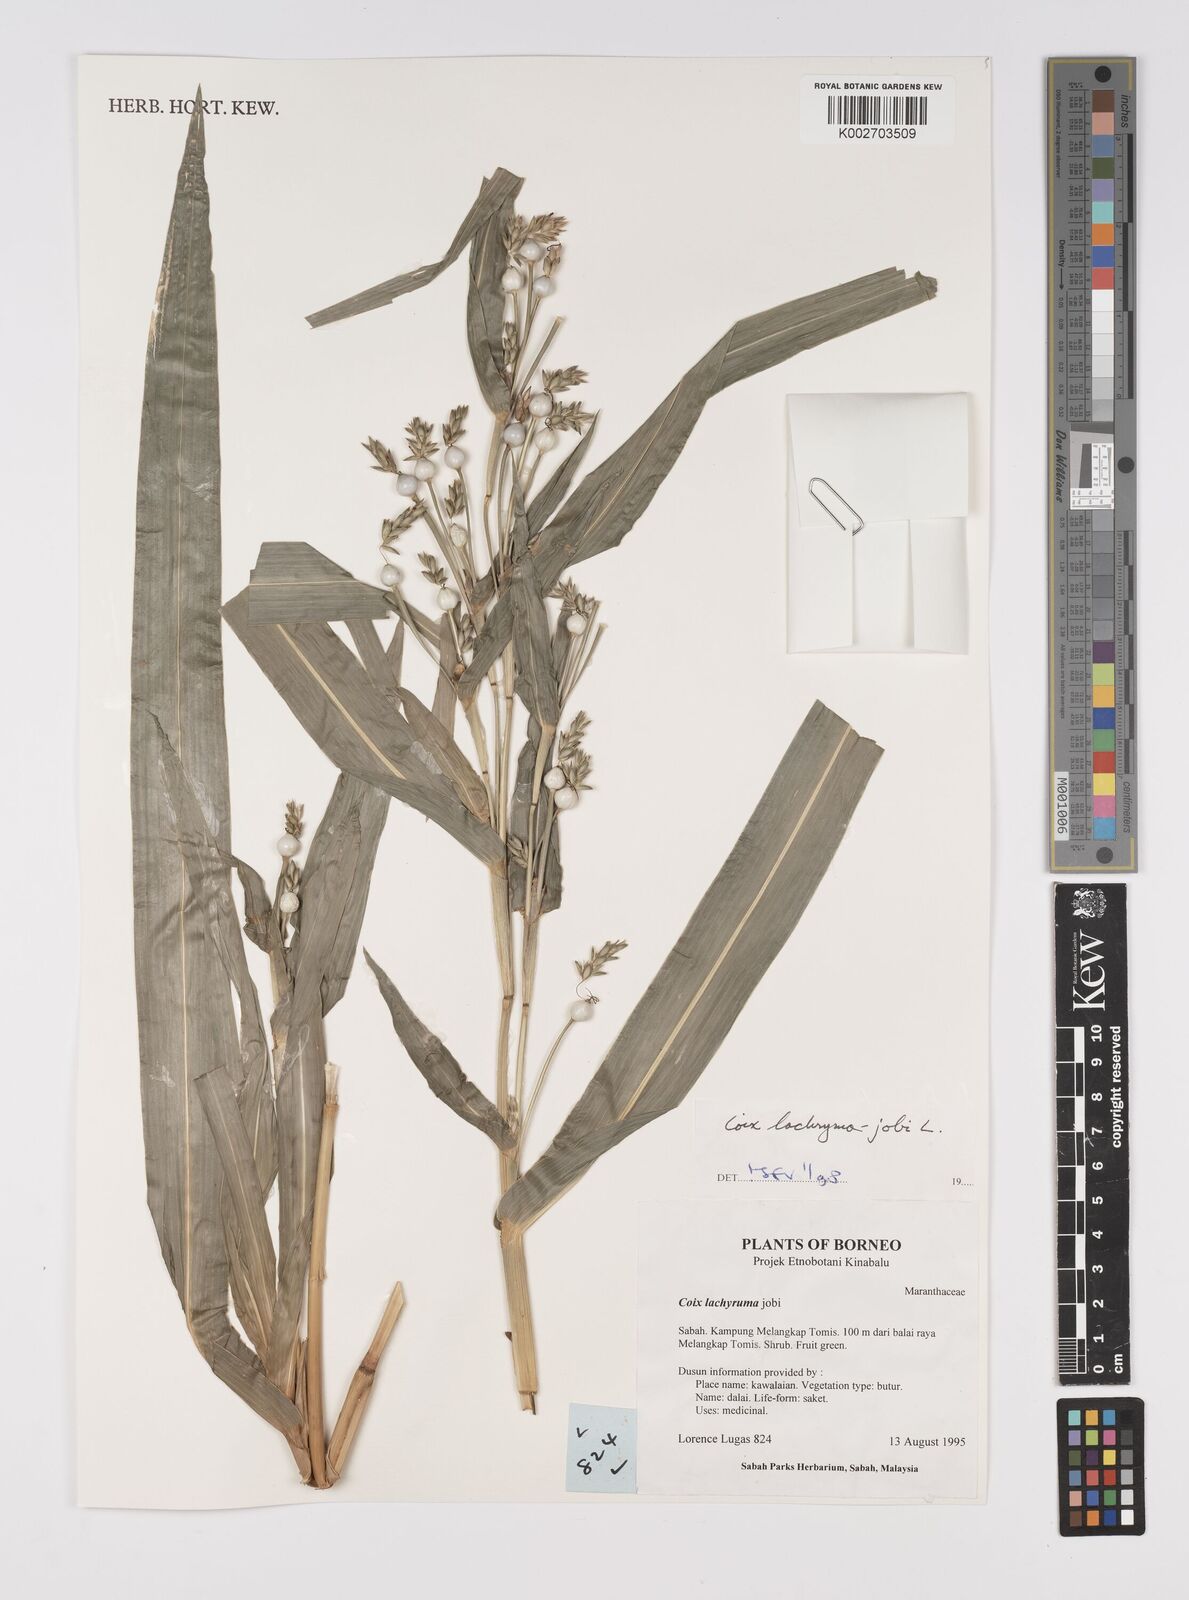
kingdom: Plantae
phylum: Tracheophyta
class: Liliopsida
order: Poales
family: Poaceae
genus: Coix
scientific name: Coix lacryma-jobi
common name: Job's tears
